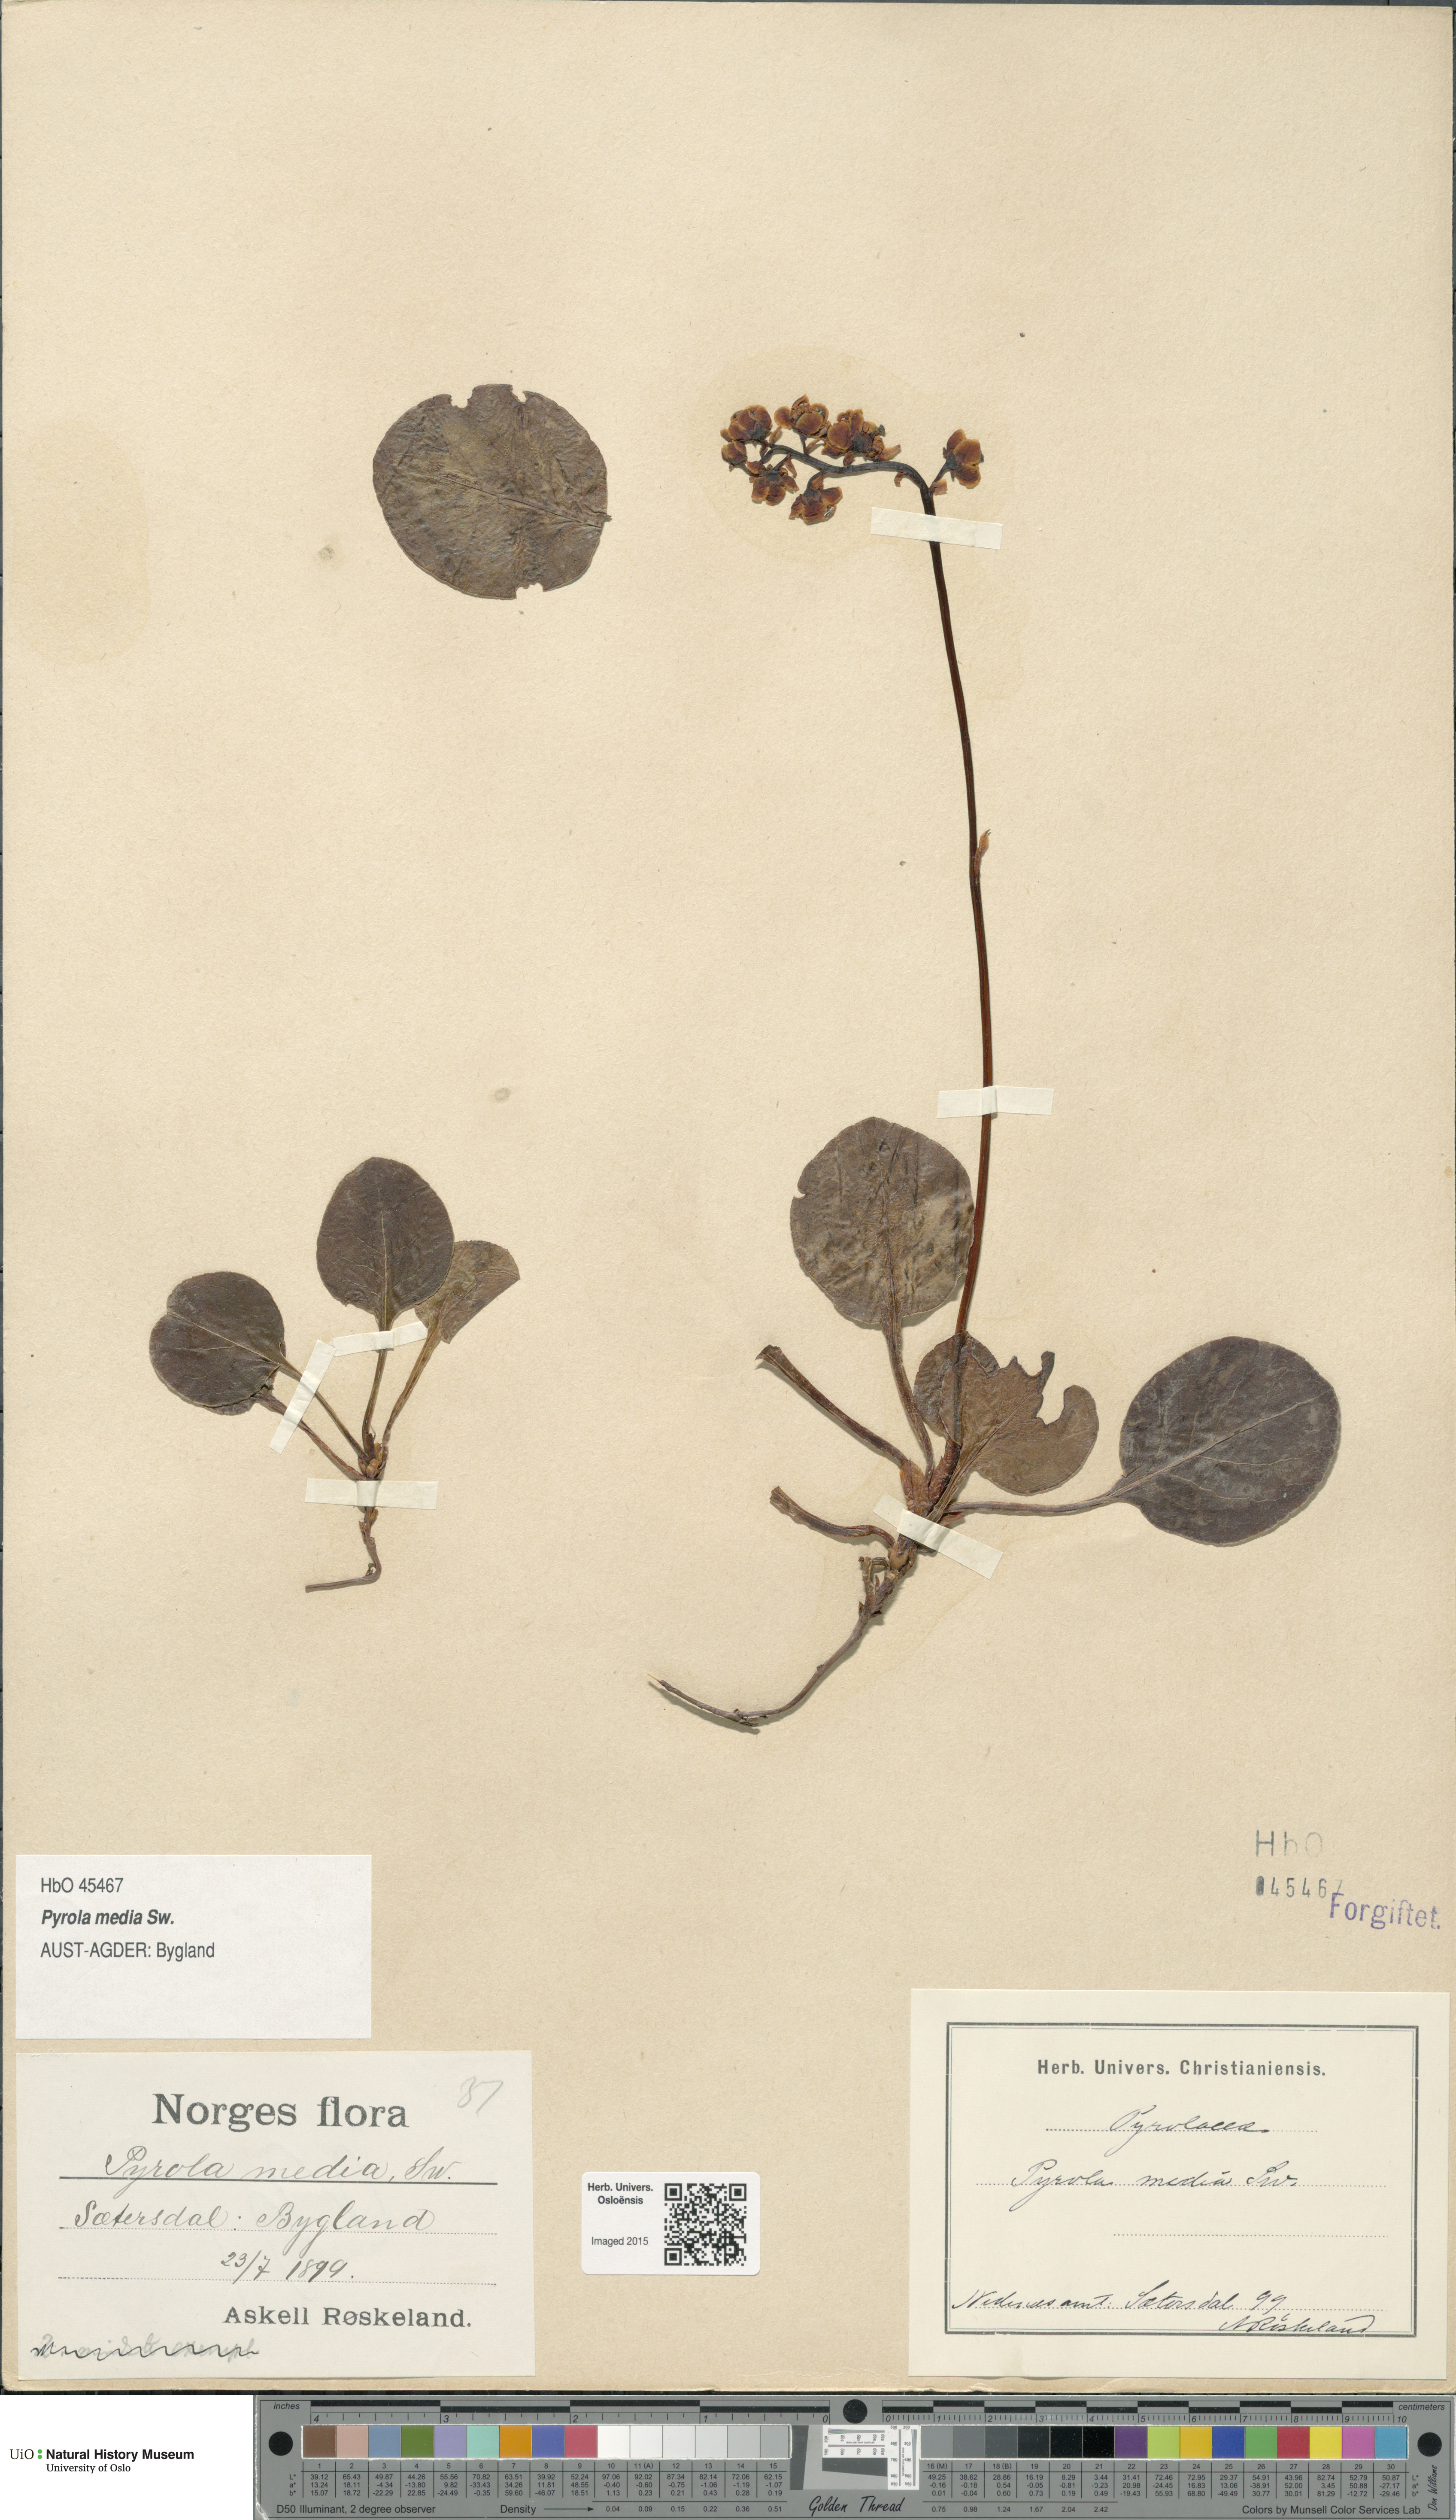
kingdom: Plantae
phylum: Tracheophyta
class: Magnoliopsida
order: Ericales
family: Ericaceae
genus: Pyrola
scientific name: Pyrola media
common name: Intermediate wintergreen
